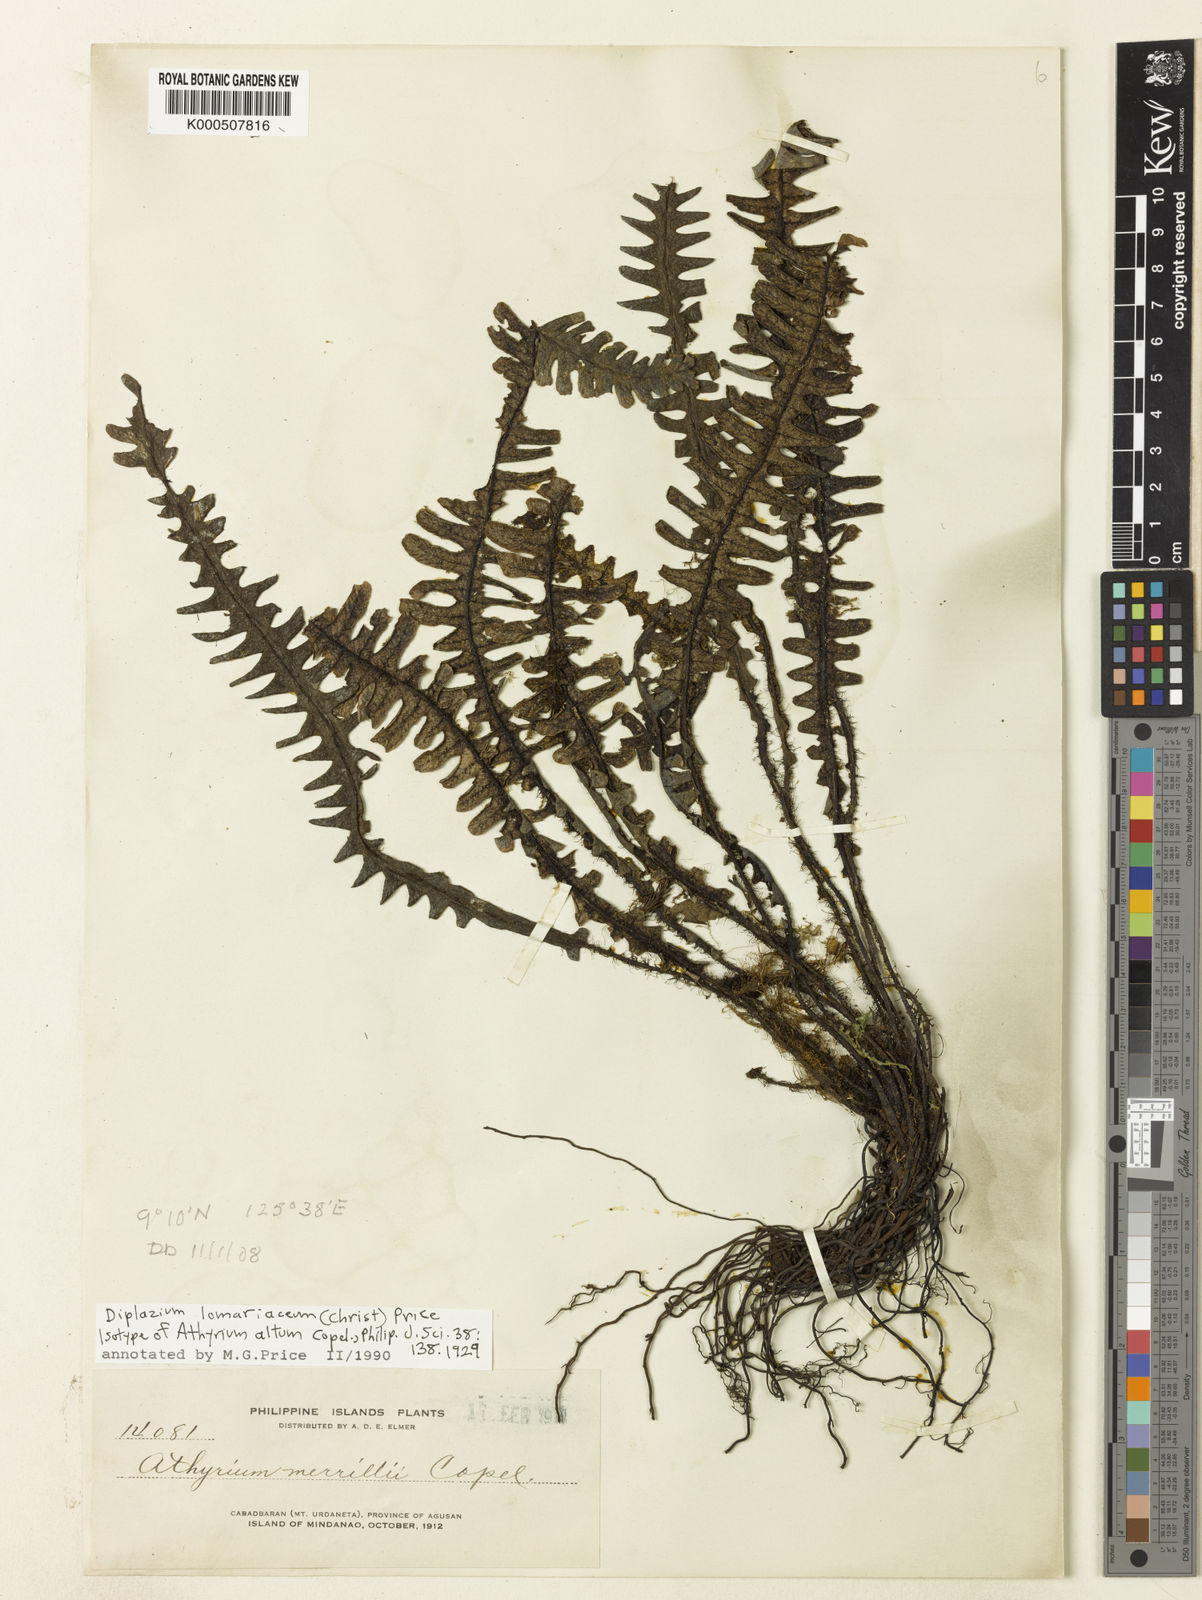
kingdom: Plantae
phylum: Tracheophyta
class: Polypodiopsida
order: Polypodiales
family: Athyriaceae
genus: Diplazium
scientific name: Diplazium lomariaceum
